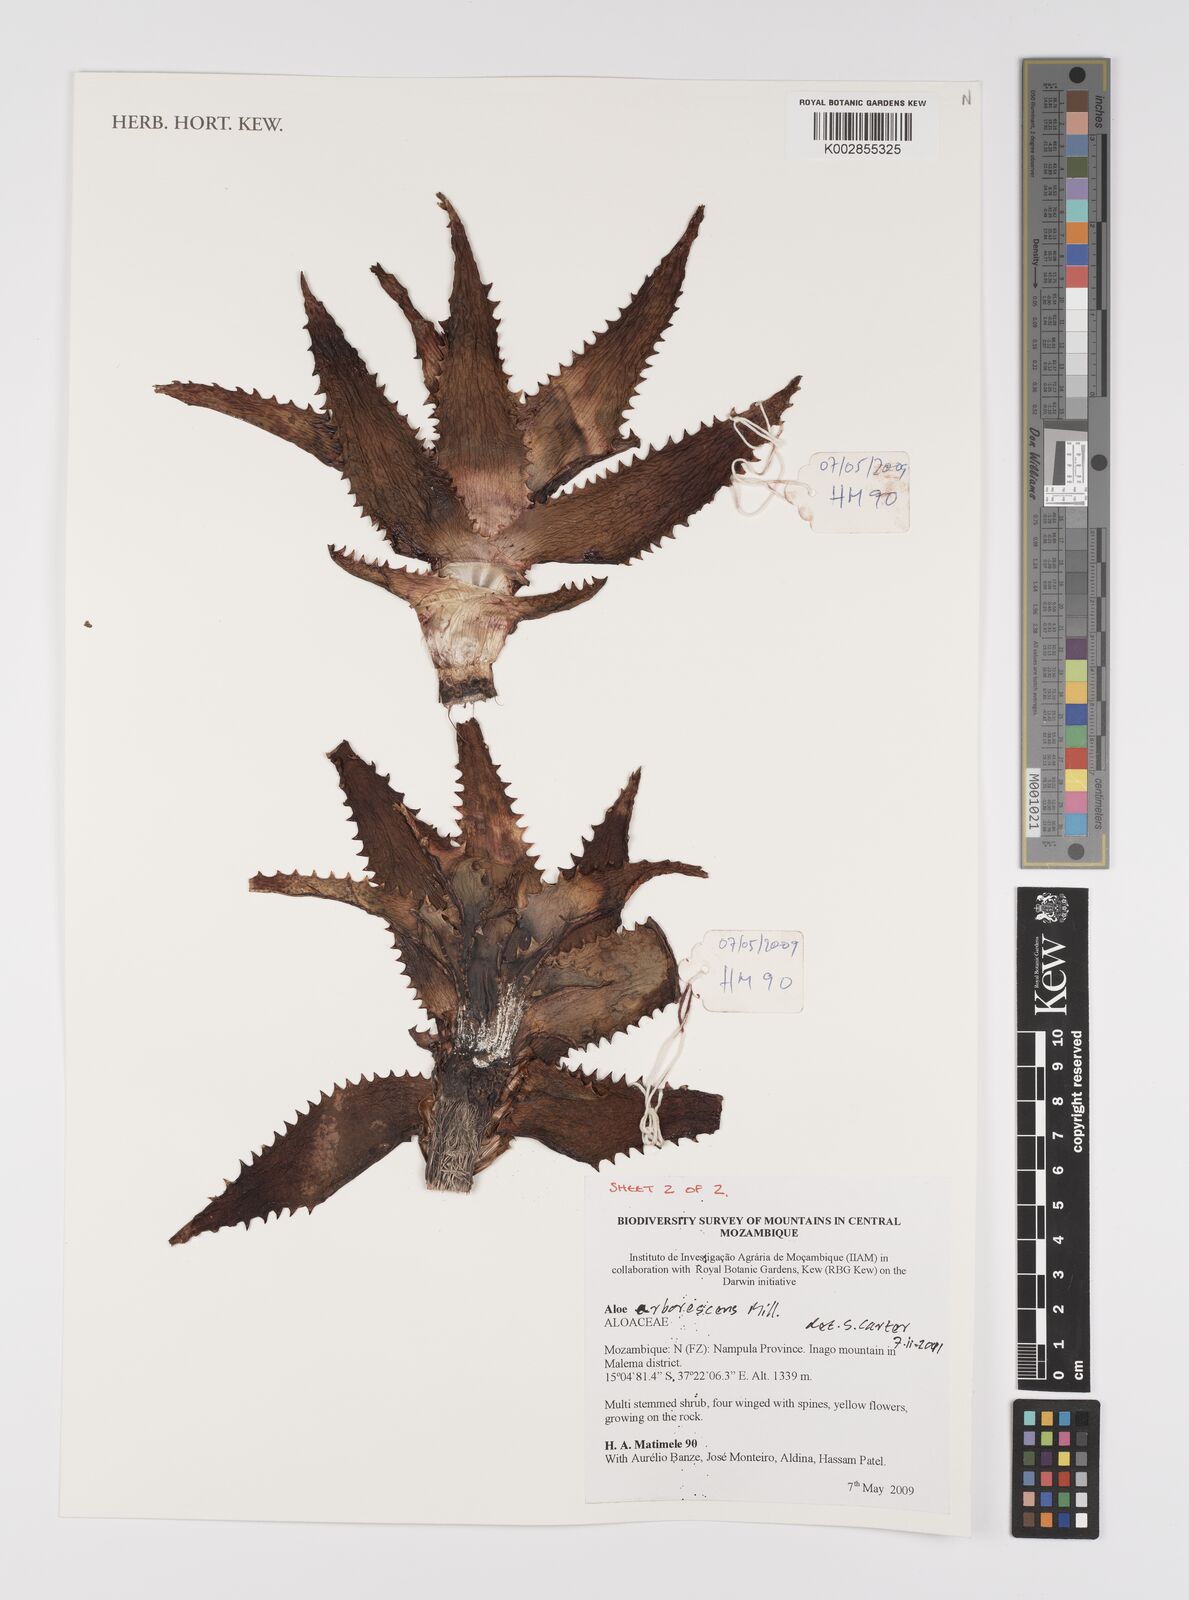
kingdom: Plantae
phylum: Tracheophyta
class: Liliopsida
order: Asparagales
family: Asphodelaceae
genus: Aloe
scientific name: Aloe
